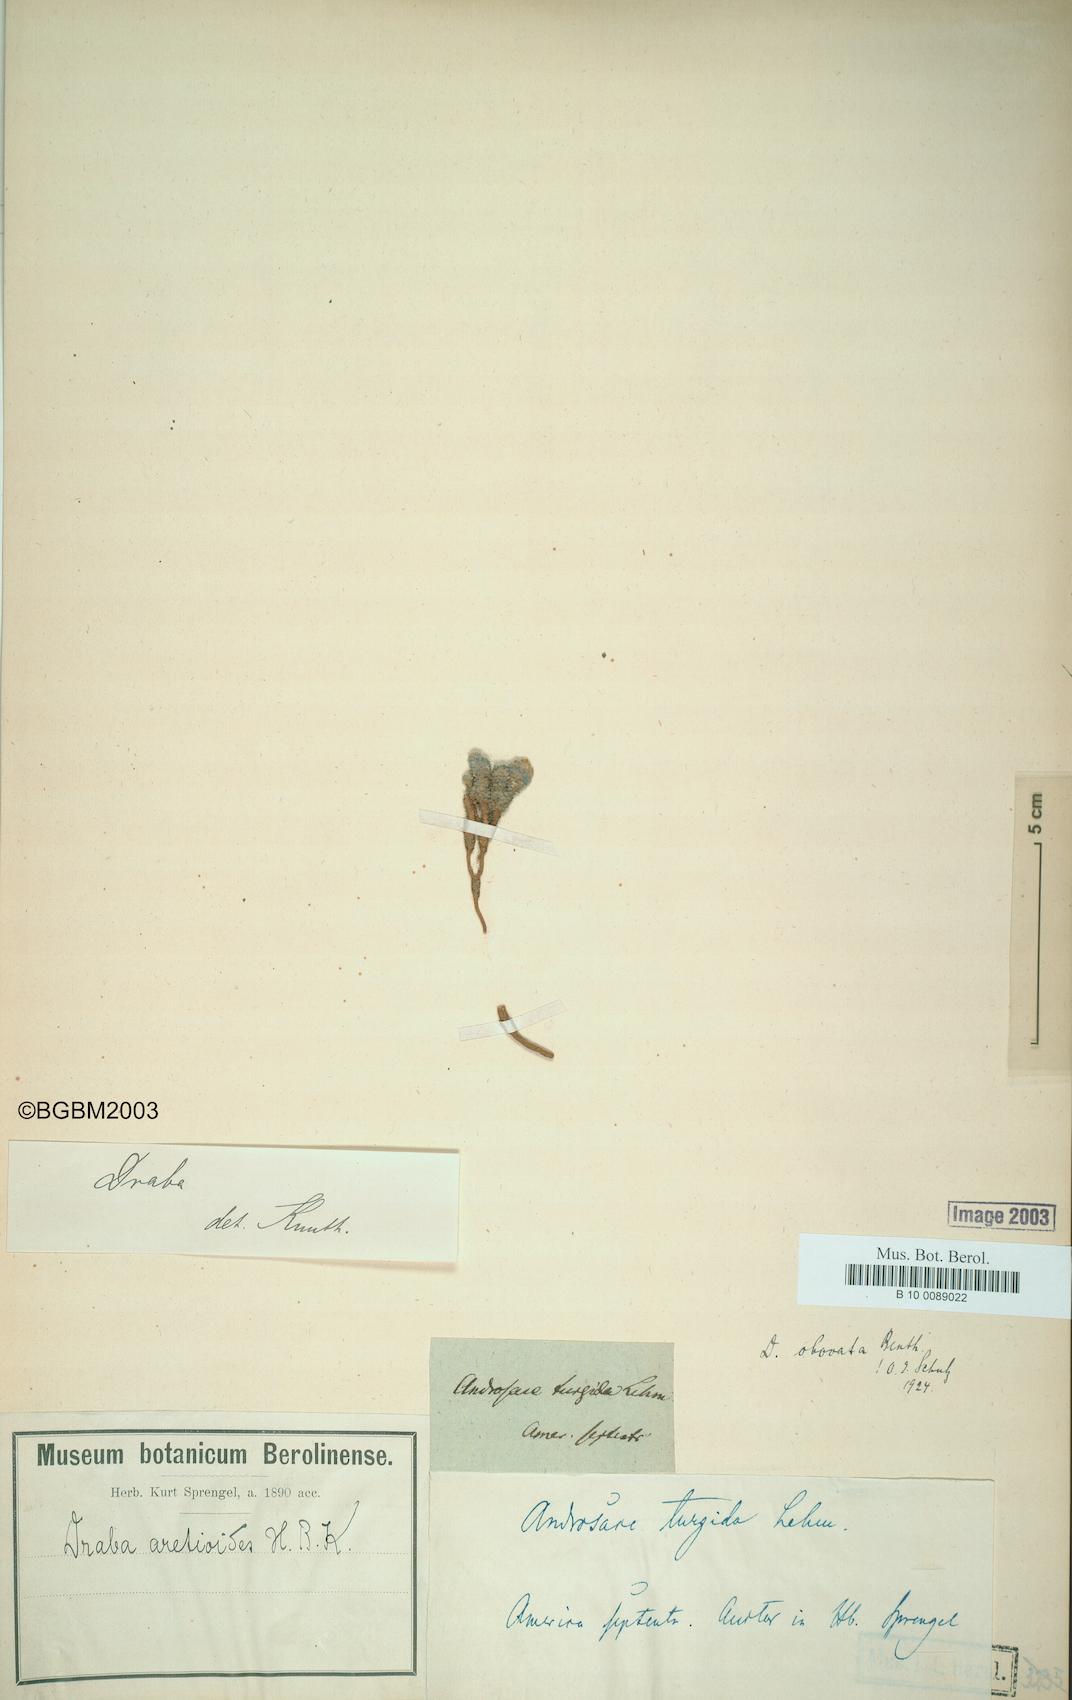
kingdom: Plantae
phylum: Tracheophyta
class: Magnoliopsida
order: Brassicales
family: Brassicaceae
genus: Draba
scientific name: Draba obovata
